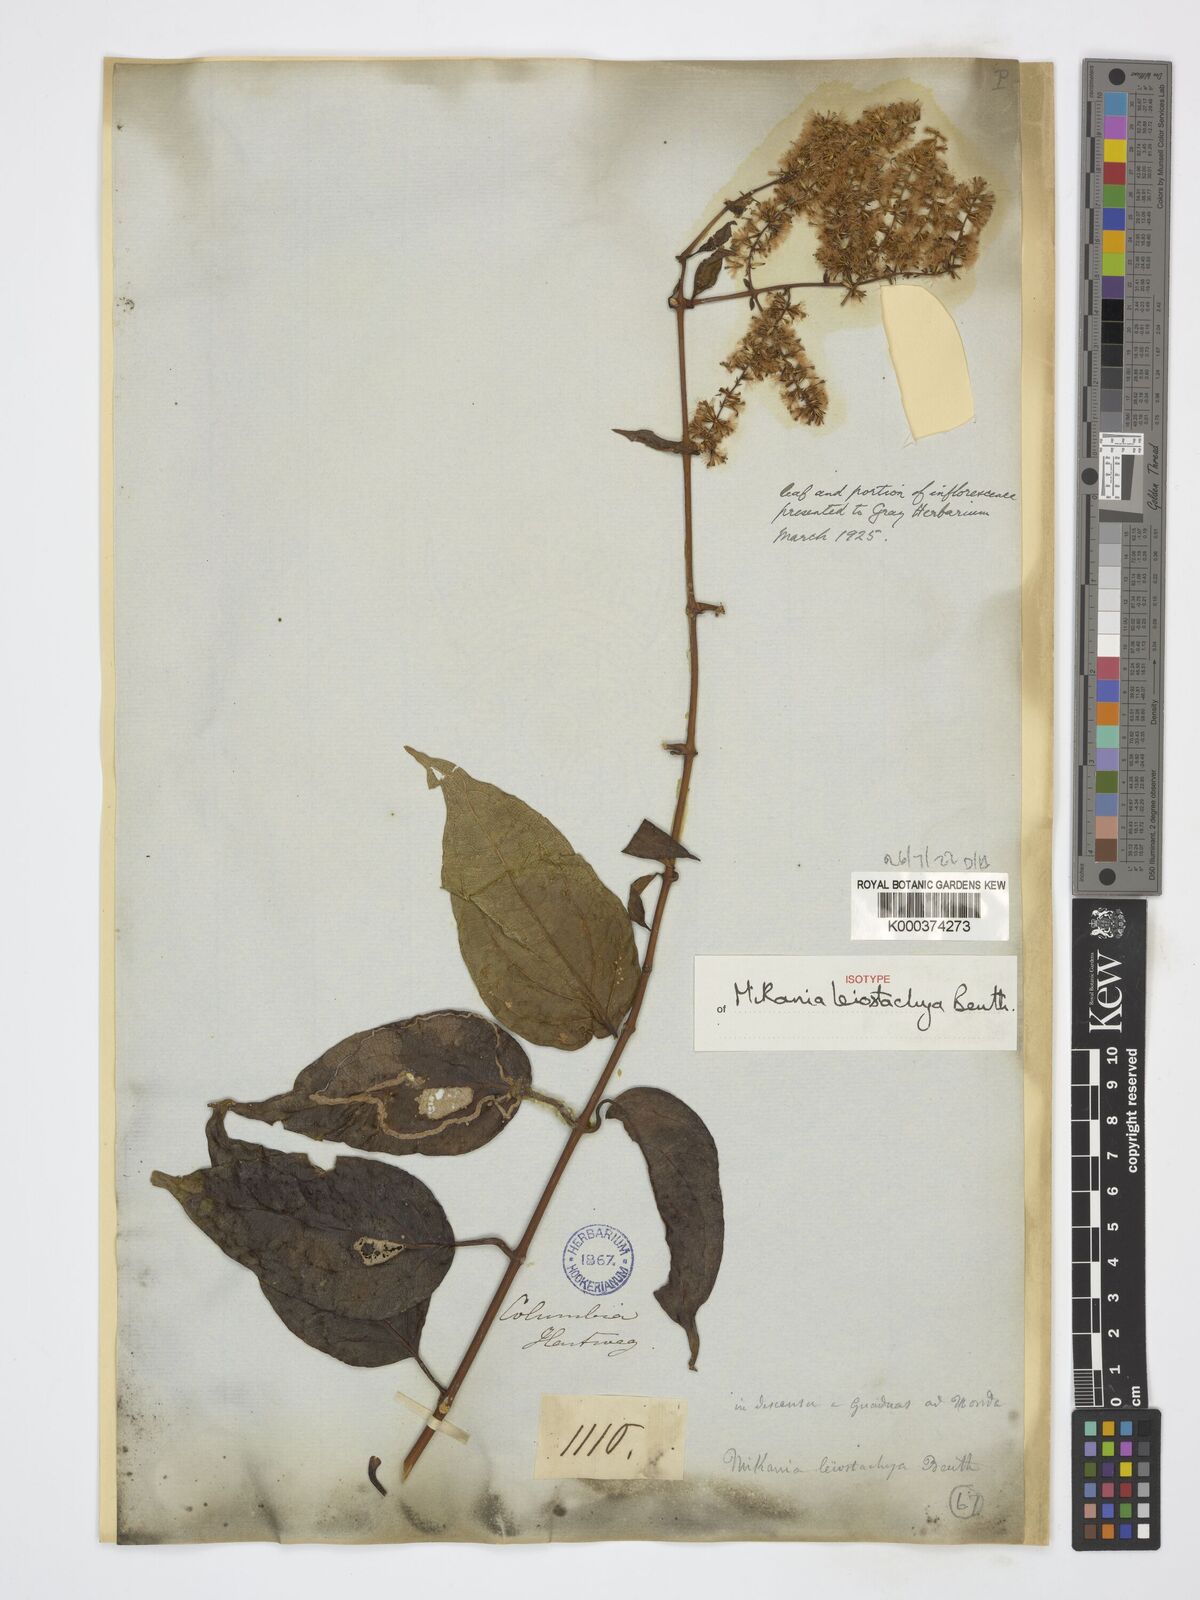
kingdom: Plantae
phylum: Tracheophyta
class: Magnoliopsida
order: Asterales
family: Asteraceae
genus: Mikania
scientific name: Mikania leiostachya
